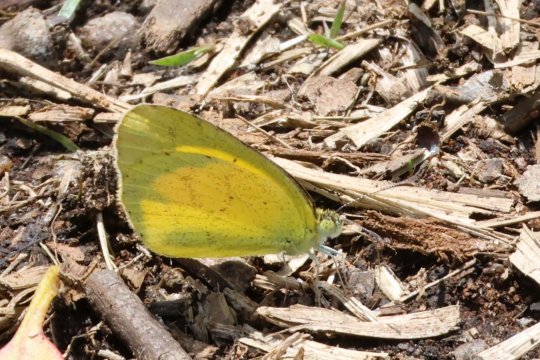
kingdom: Animalia
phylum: Arthropoda
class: Insecta
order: Lepidoptera
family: Pieridae
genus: Eurema
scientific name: Eurema brigitta
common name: Broad-bordered Grass Yellow
